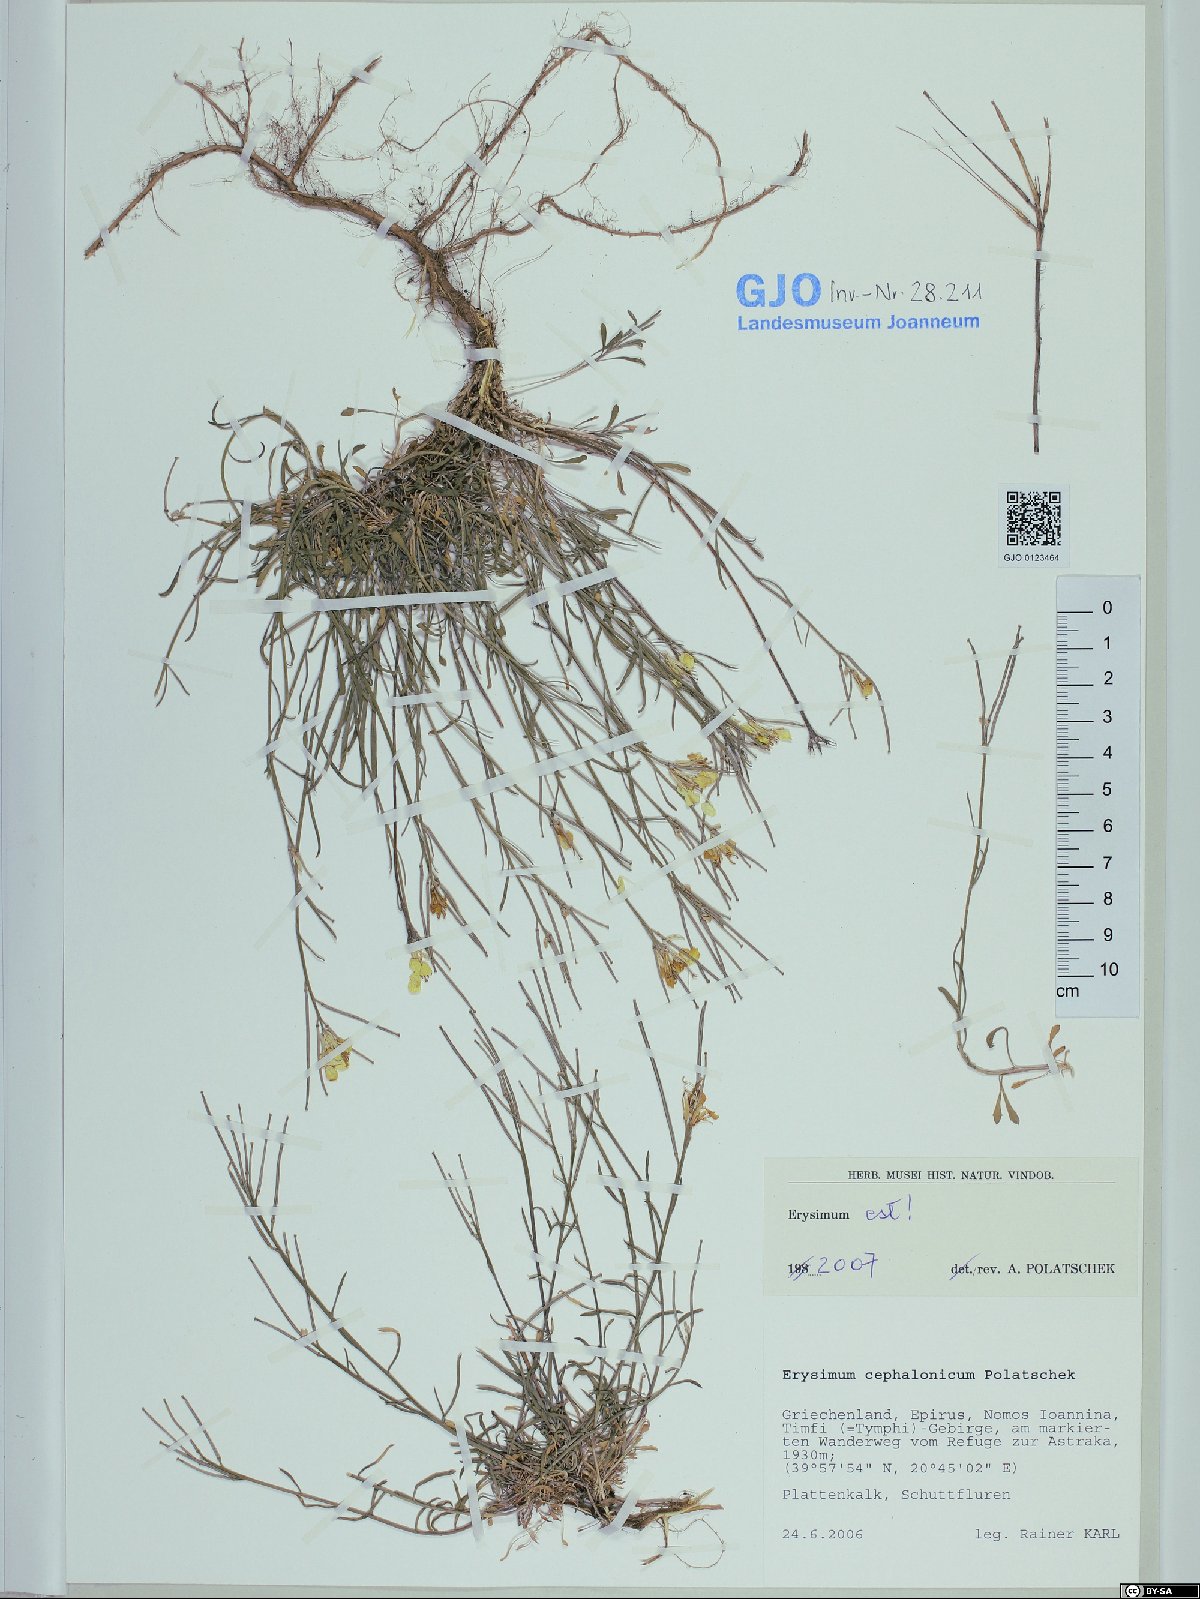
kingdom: Plantae
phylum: Tracheophyta
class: Magnoliopsida
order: Brassicales
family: Brassicaceae
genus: Erysimum
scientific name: Erysimum pusillum
